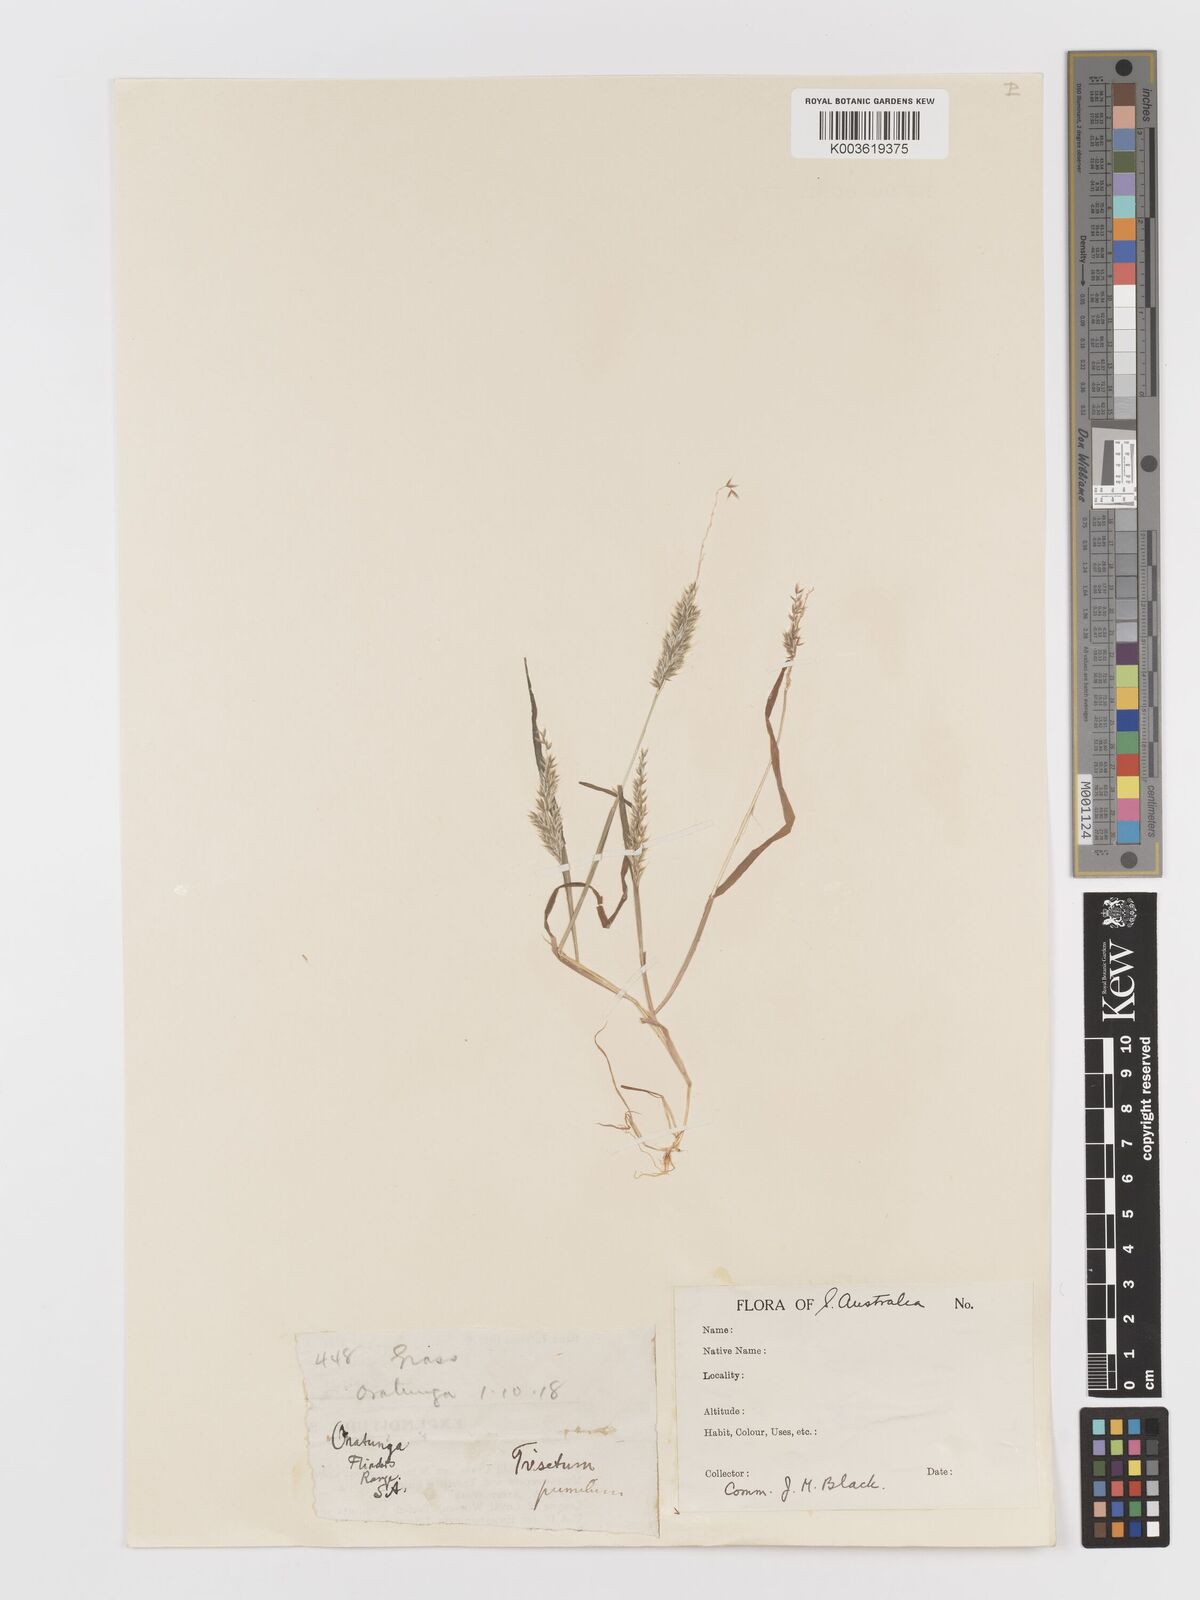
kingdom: Plantae
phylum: Tracheophyta
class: Liliopsida
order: Poales
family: Poaceae
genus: Rostraria
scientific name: Rostraria pumila
